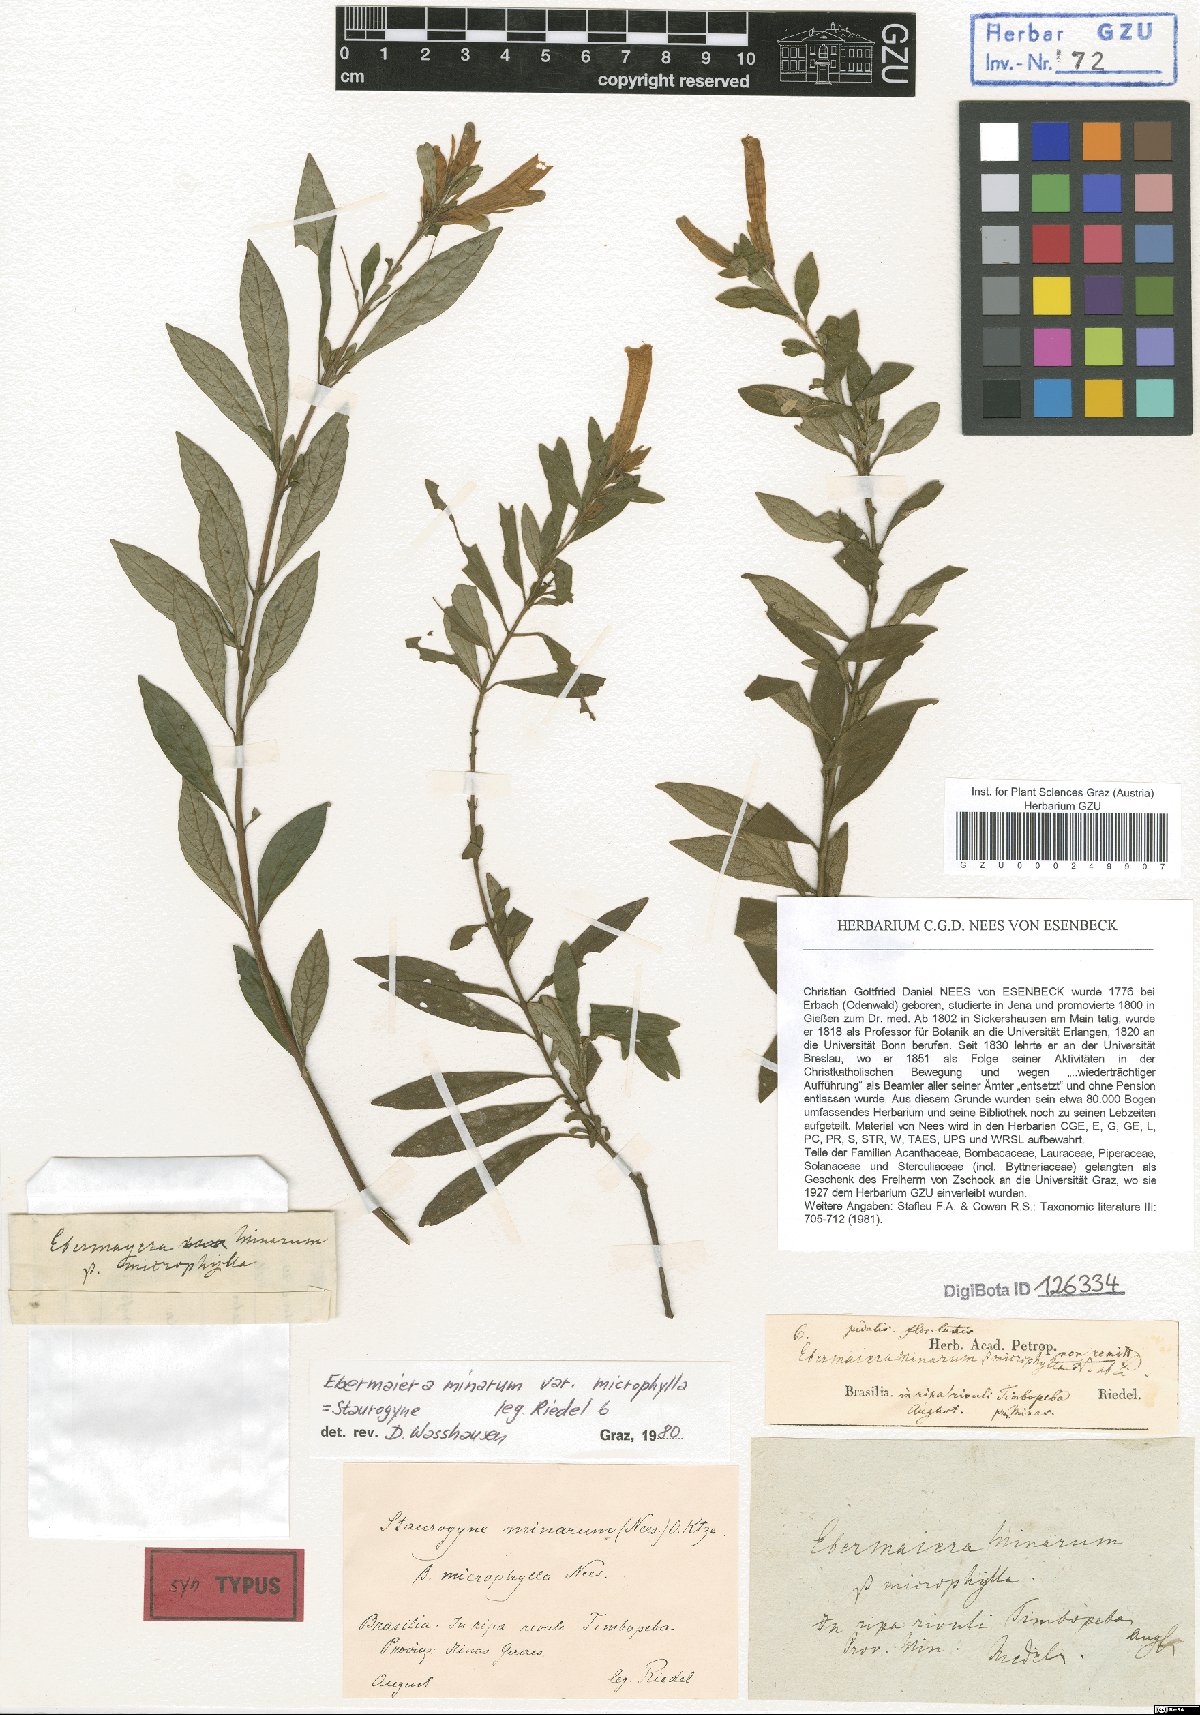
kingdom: Plantae
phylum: Tracheophyta
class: Magnoliopsida
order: Lamiales
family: Acanthaceae
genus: Staurogyne
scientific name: Staurogyne ericoides
